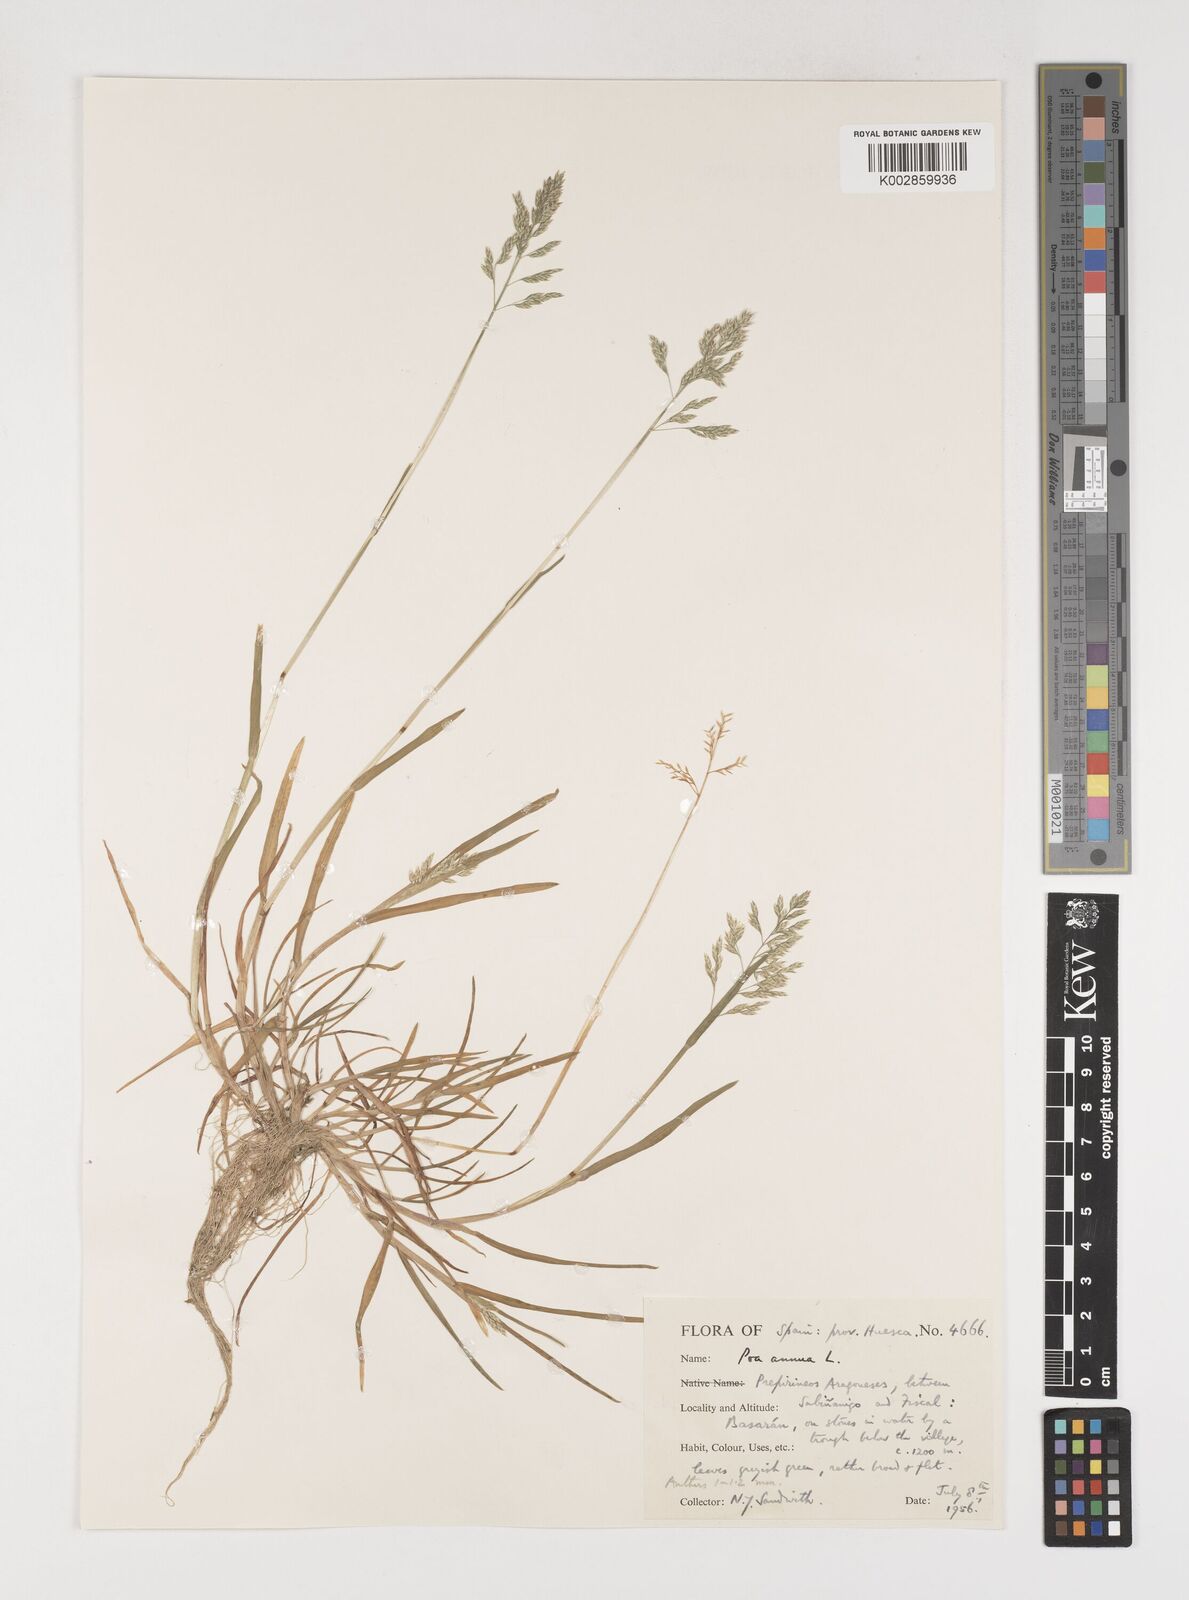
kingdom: Plantae
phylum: Tracheophyta
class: Liliopsida
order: Poales
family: Poaceae
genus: Poa
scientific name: Poa annua
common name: Annual bluegrass
